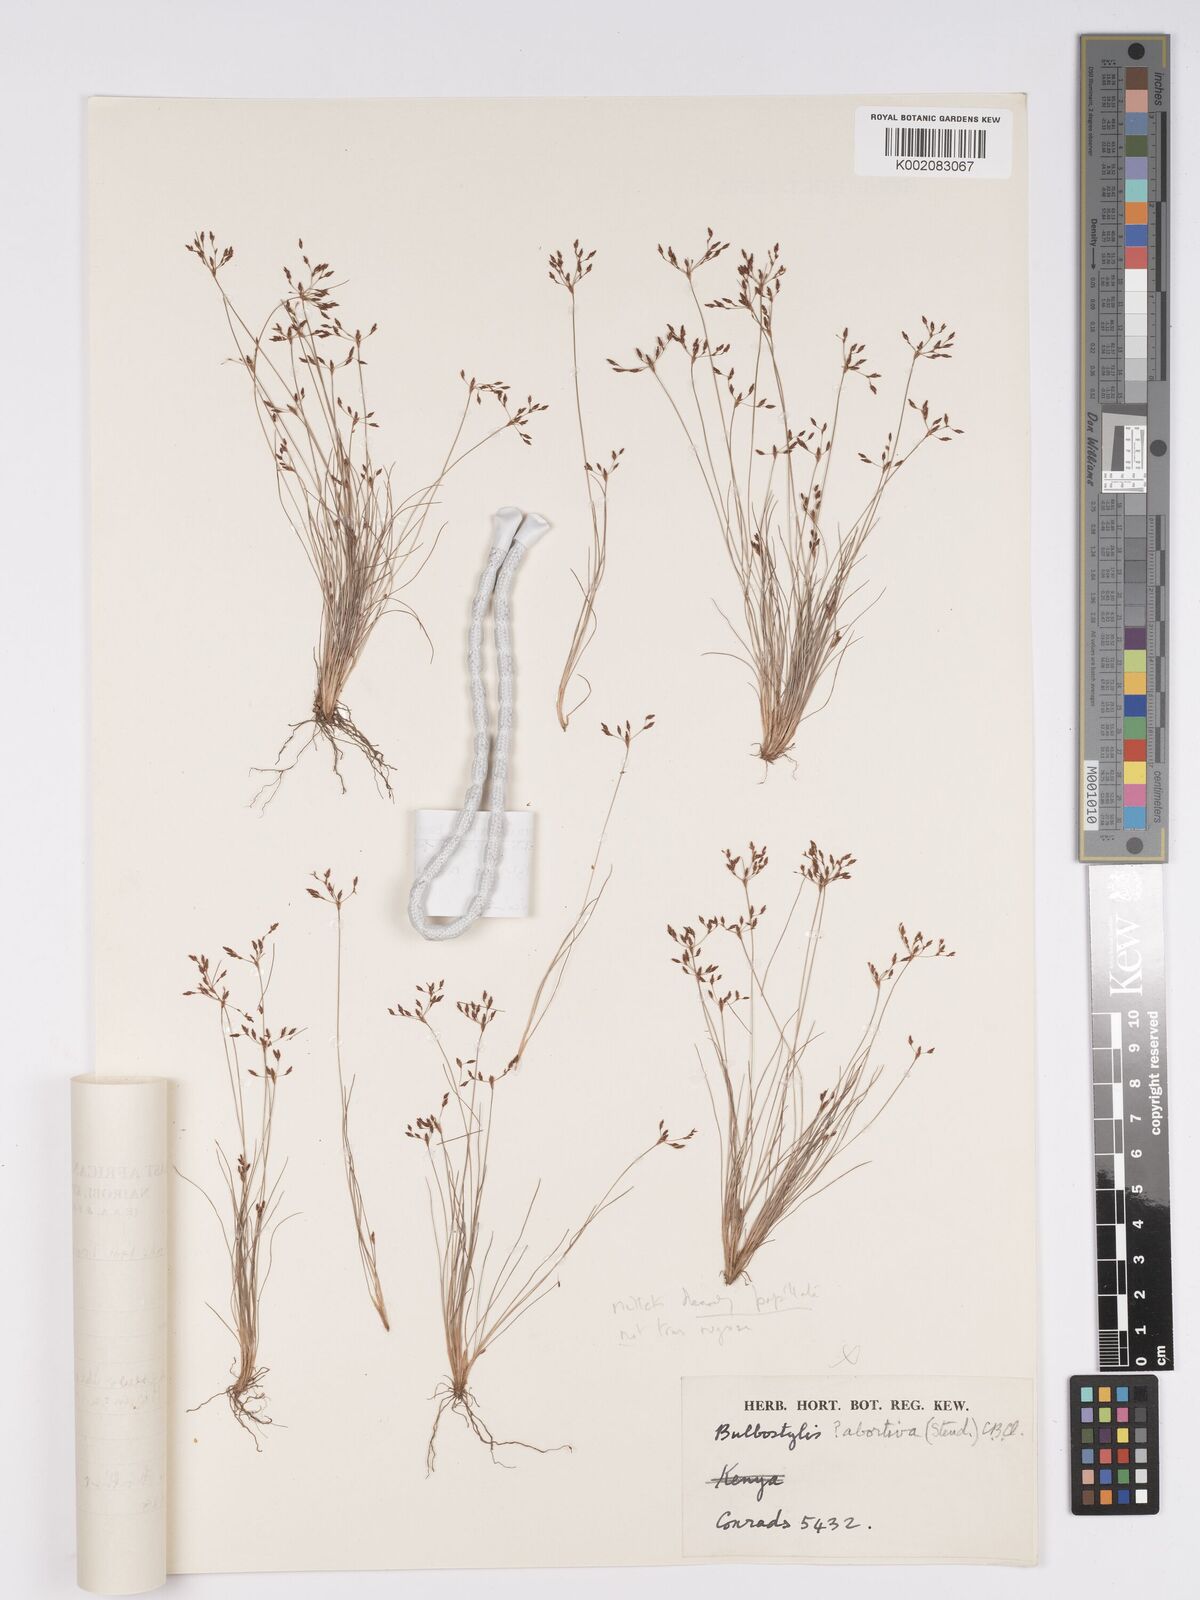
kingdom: Plantae
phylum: Tracheophyta
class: Liliopsida
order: Poales
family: Cyperaceae
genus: Bulbostylis
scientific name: Bulbostylis microelegans
